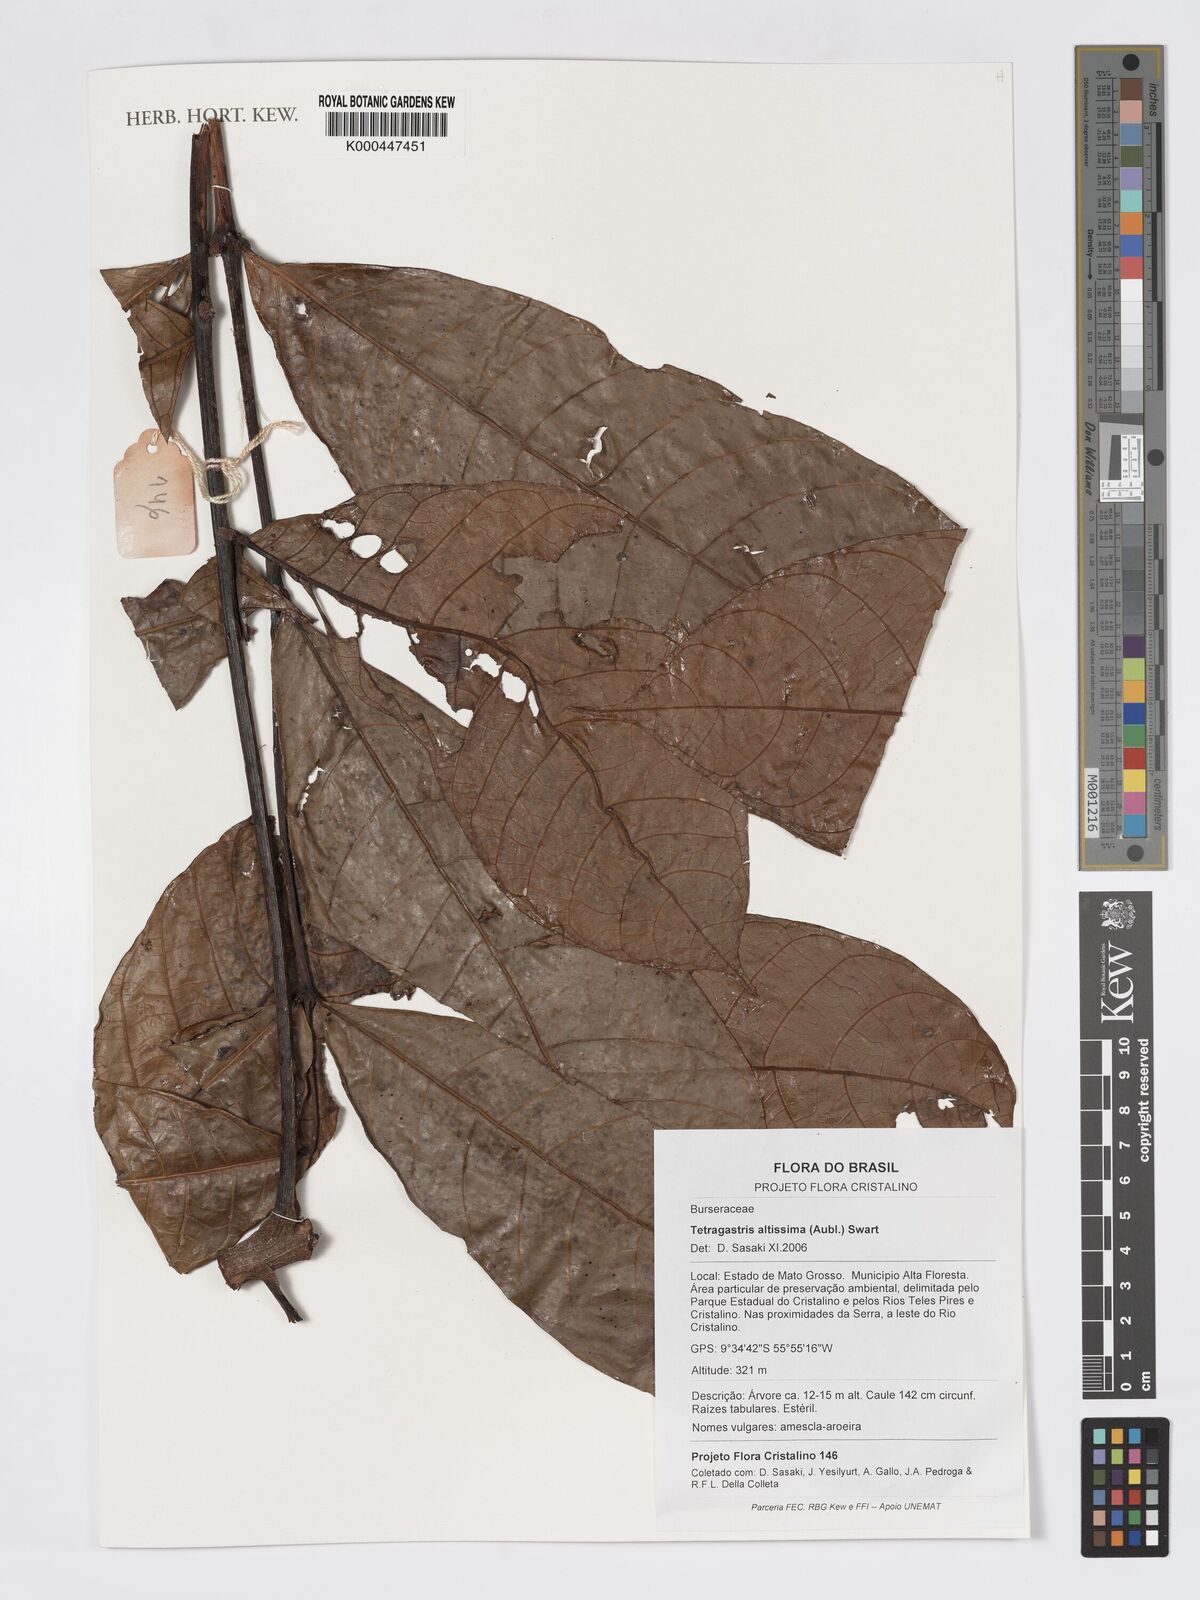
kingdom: Plantae
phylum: Tracheophyta
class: Magnoliopsida
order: Sapindales
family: Burseraceae
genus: Tetragastris
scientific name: Tetragastris altissima
